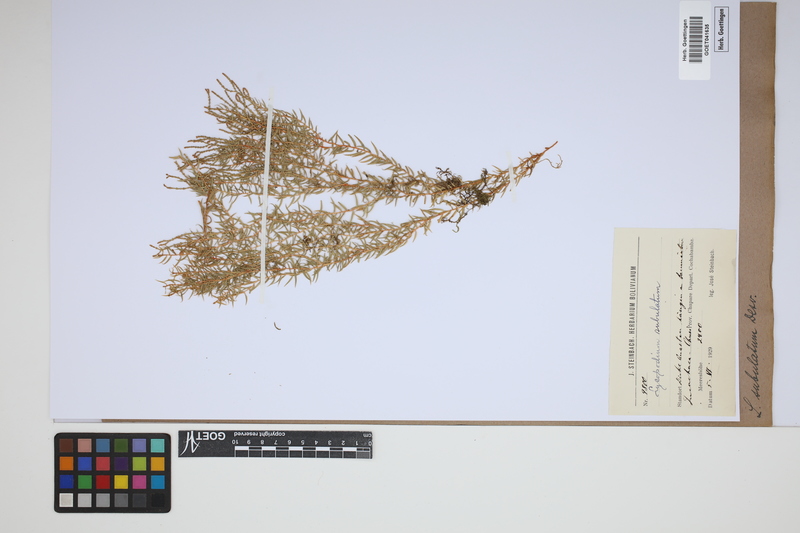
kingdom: Plantae
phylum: Tracheophyta
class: Lycopodiopsida
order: Lycopodiales
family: Lycopodiaceae
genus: Phlegmariurus
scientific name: Phlegmariurus subulatus
